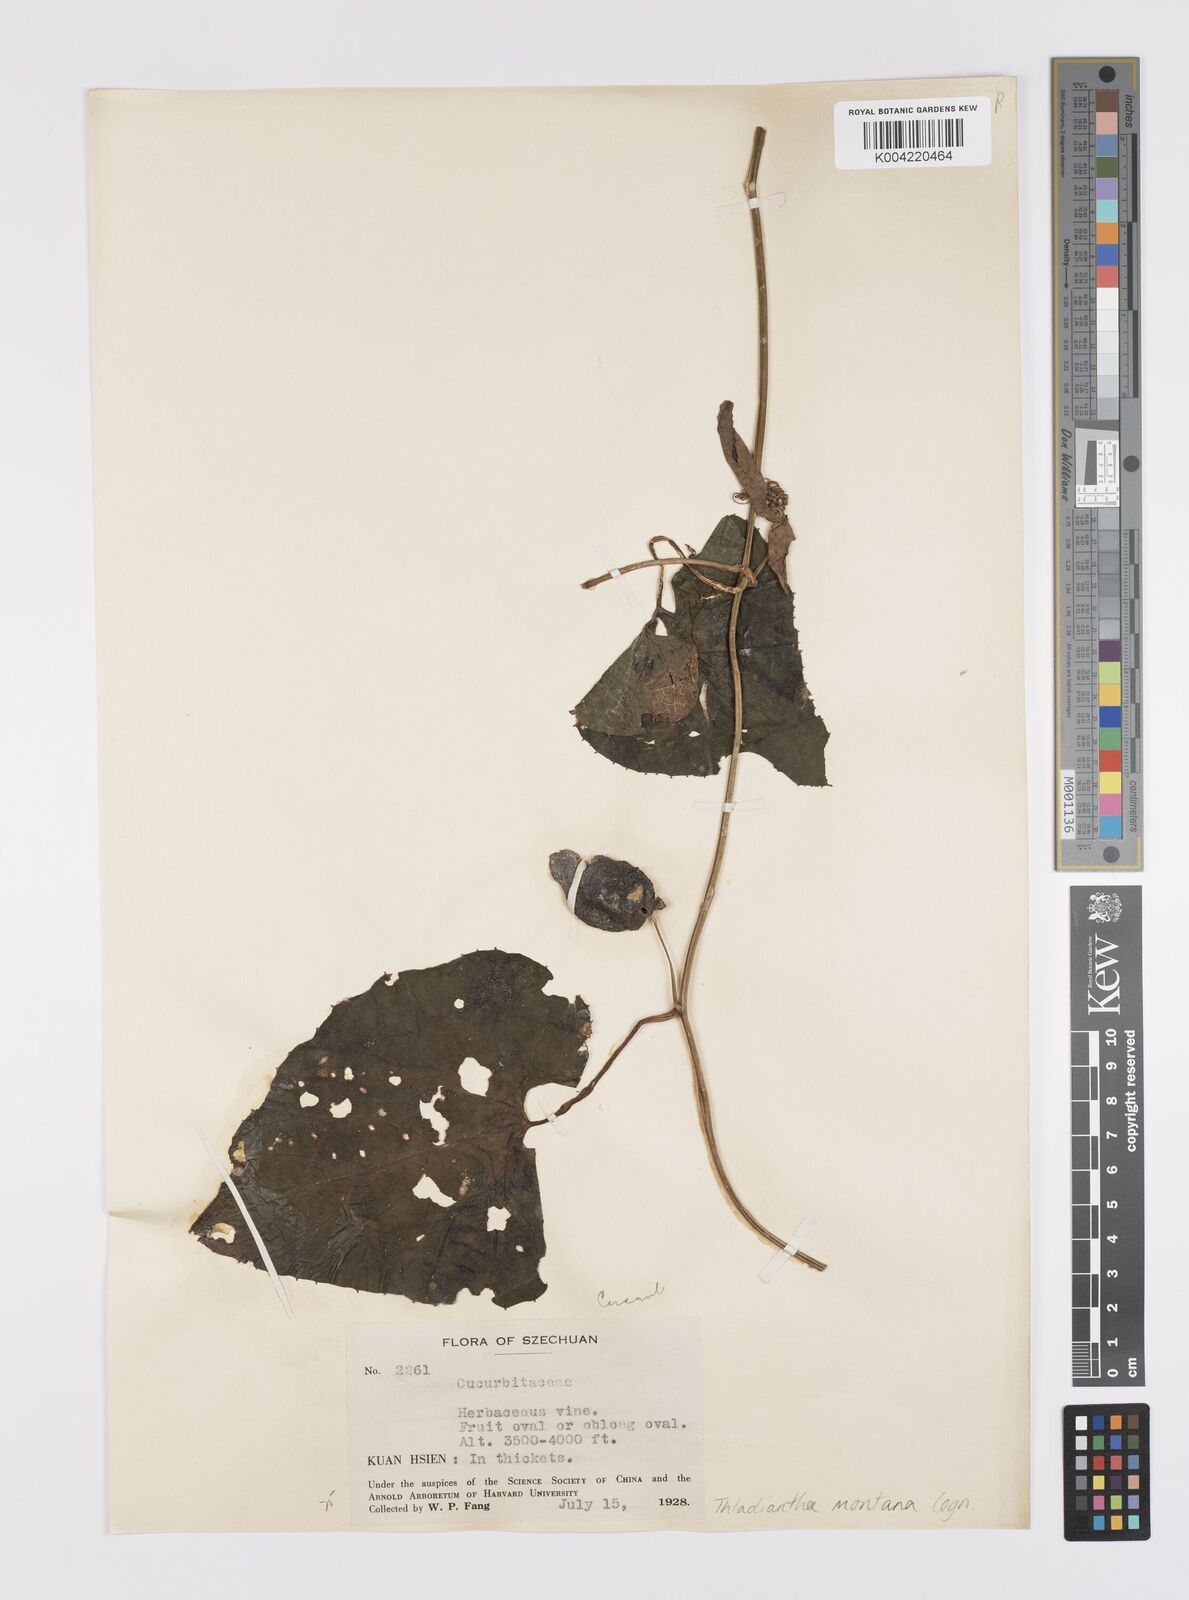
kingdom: Plantae
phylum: Tracheophyta
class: Magnoliopsida
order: Cucurbitales
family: Cucurbitaceae
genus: Thladiantha
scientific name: Thladiantha montana
